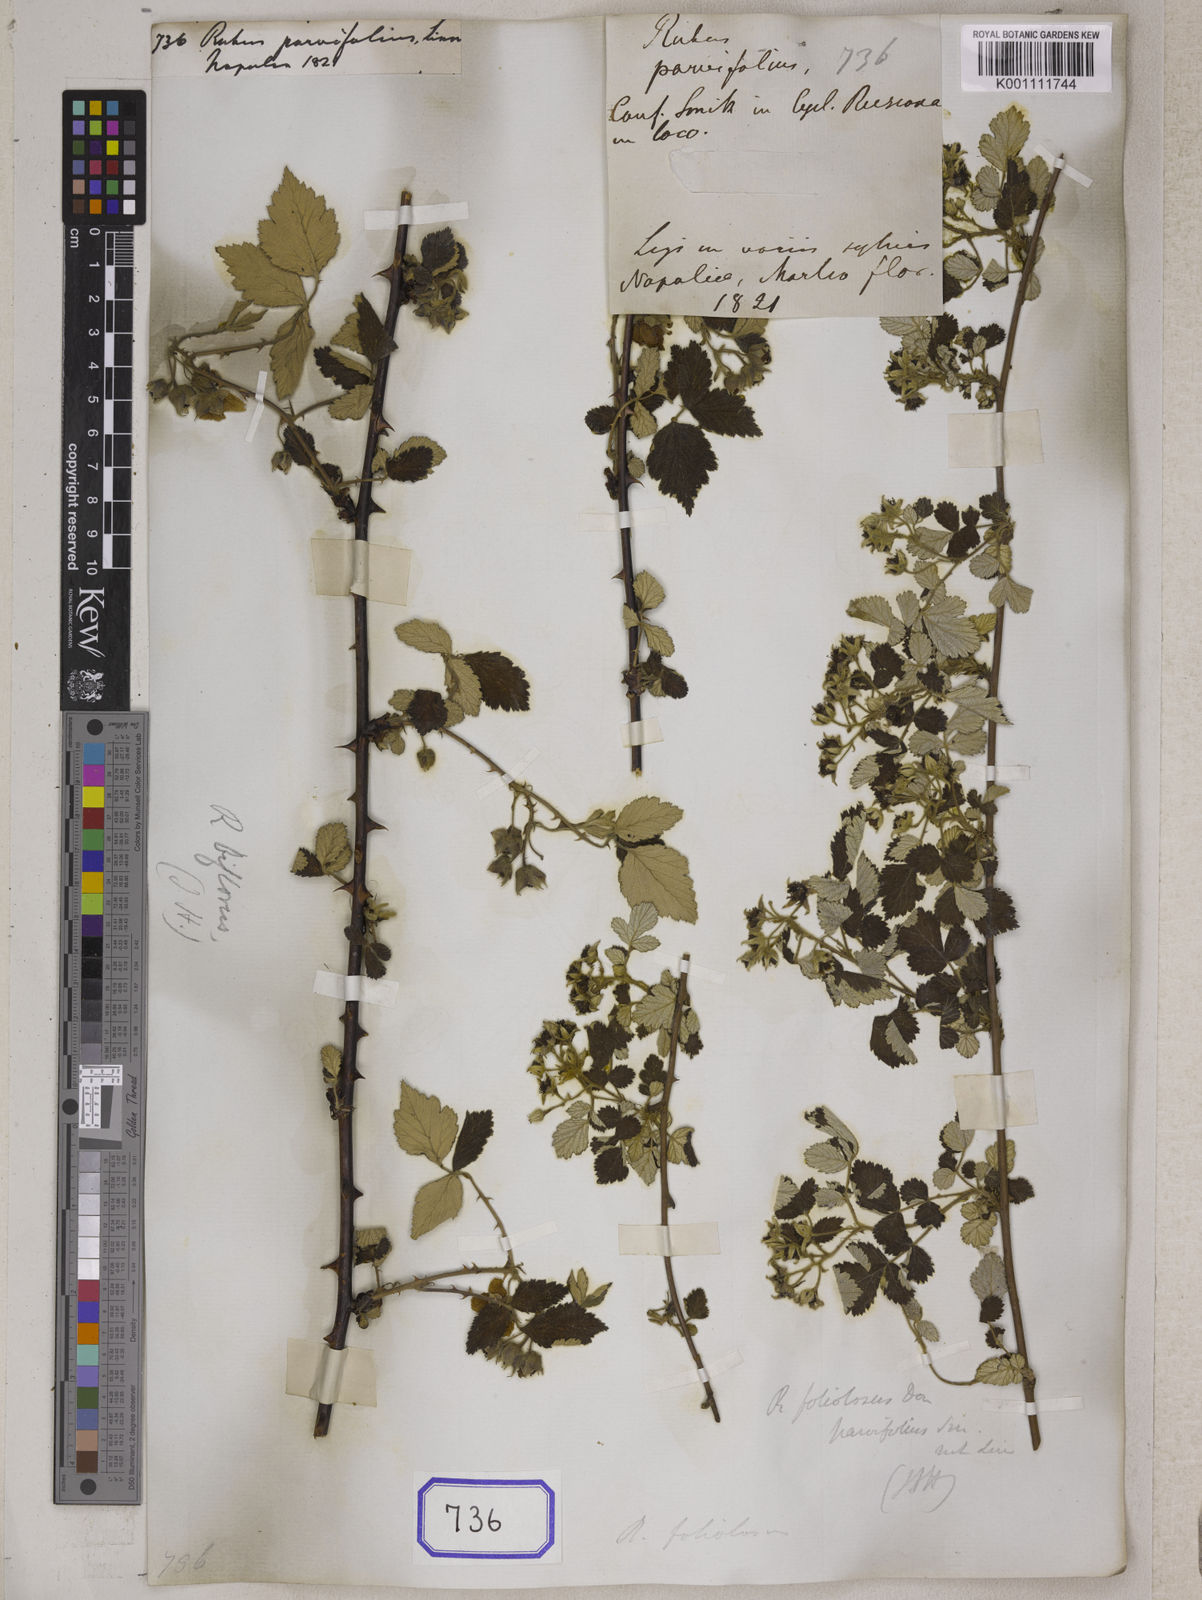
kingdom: Plantae
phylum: Tracheophyta
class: Magnoliopsida
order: Rosales
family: Rosaceae
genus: Rubus
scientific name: Rubus parvifolius
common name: Threeleaf blackberry
